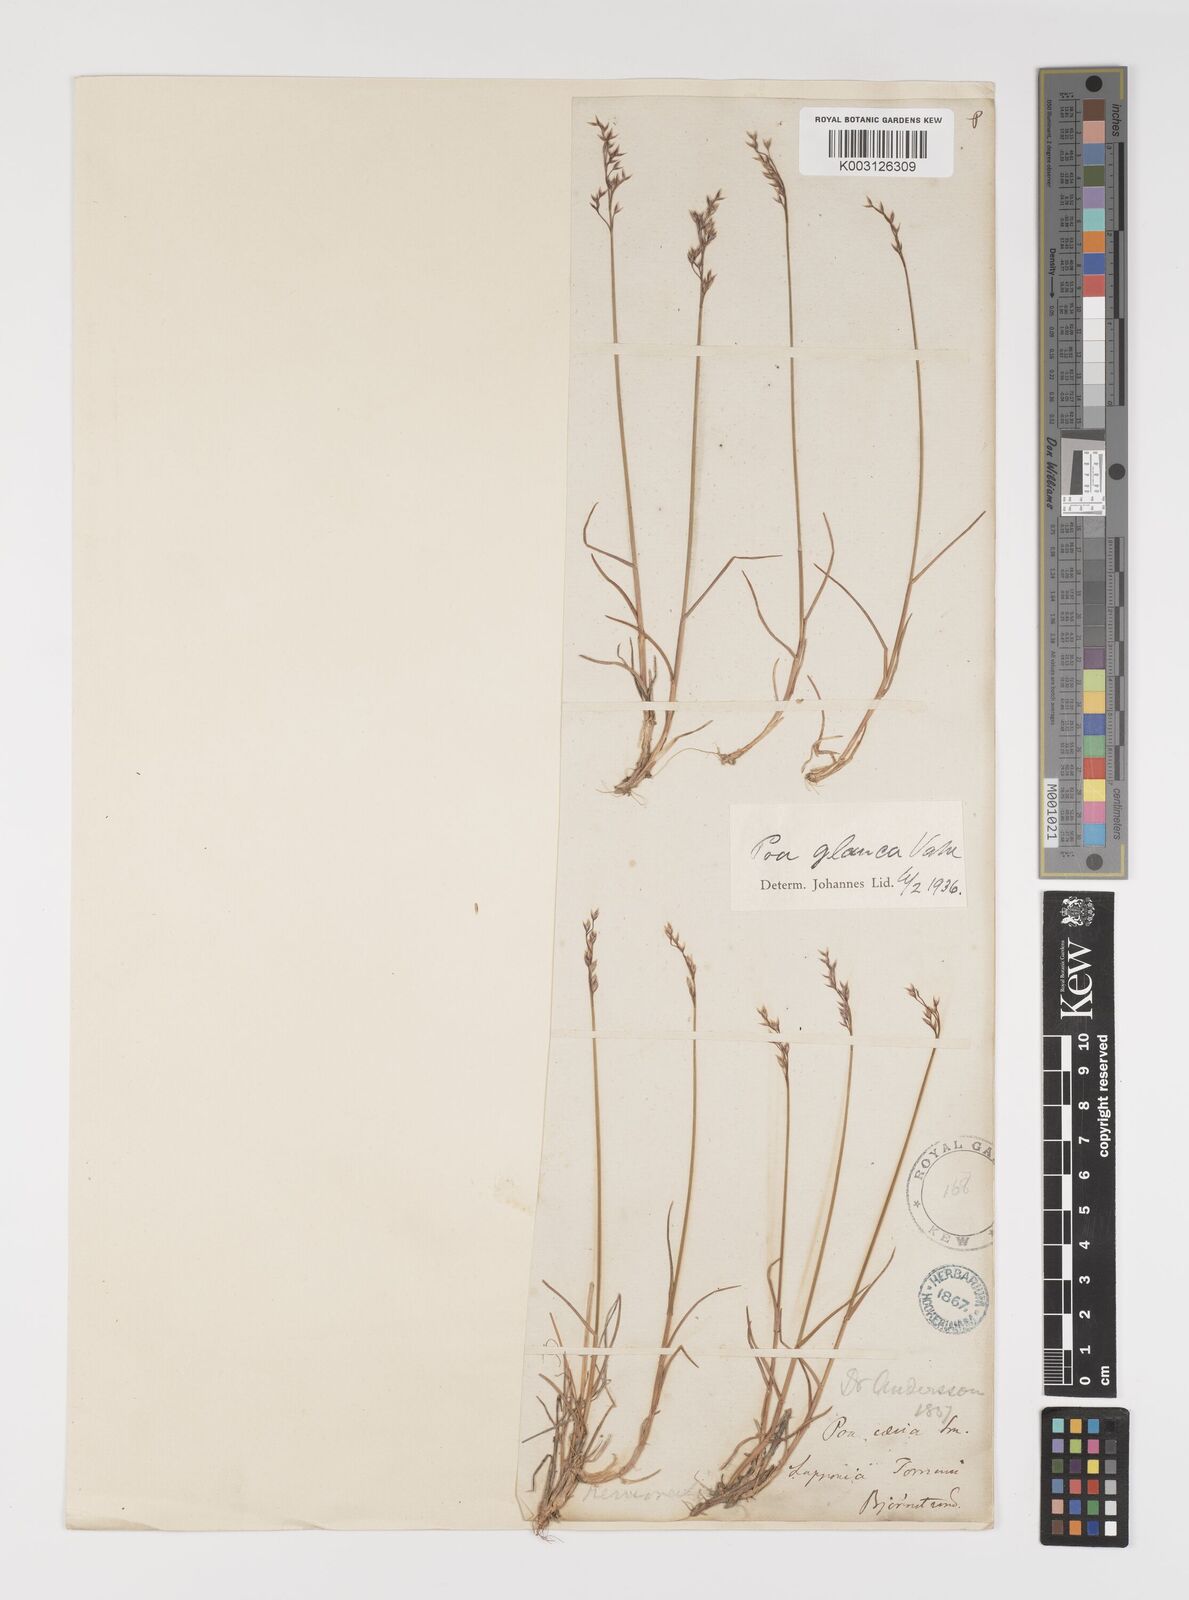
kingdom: Plantae
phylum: Tracheophyta
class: Liliopsida
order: Poales
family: Poaceae
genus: Poa
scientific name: Poa glauca
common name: Glaucous bluegrass
